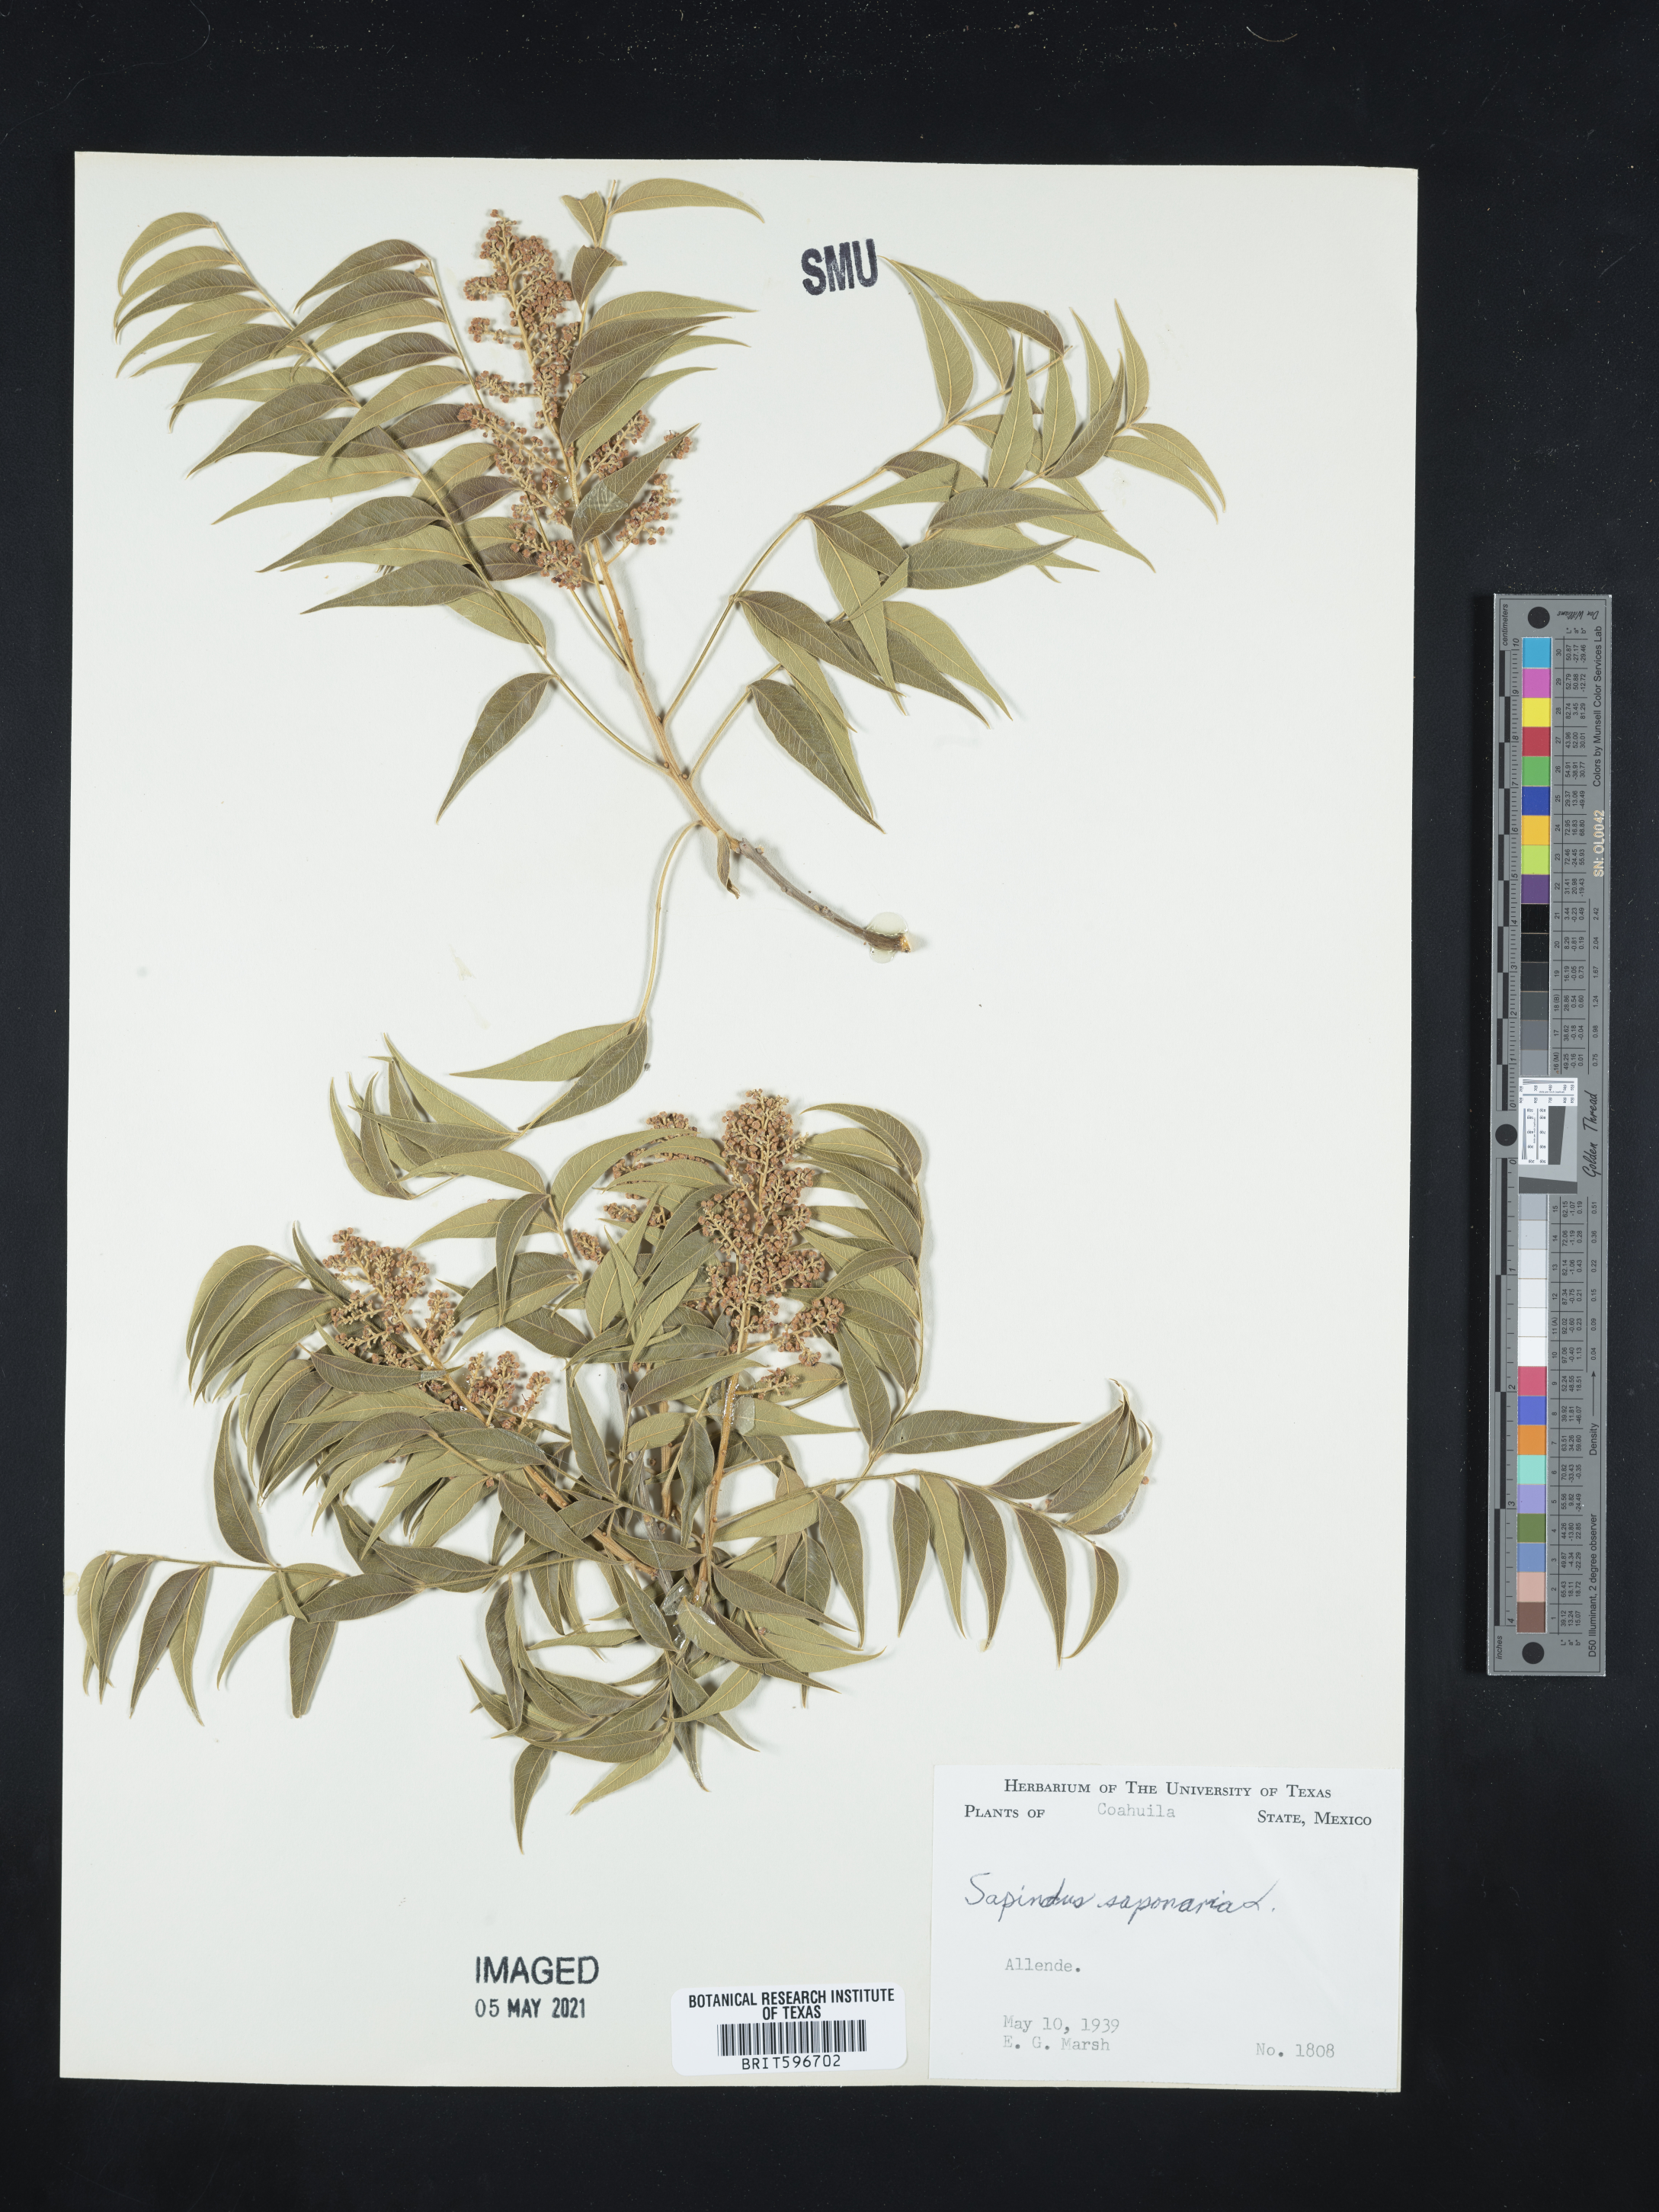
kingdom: Plantae
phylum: Tracheophyta
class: Magnoliopsida
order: Sapindales
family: Sapindaceae
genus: Sapindus
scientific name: Sapindus saponaria
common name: Wingleaf soapberry
